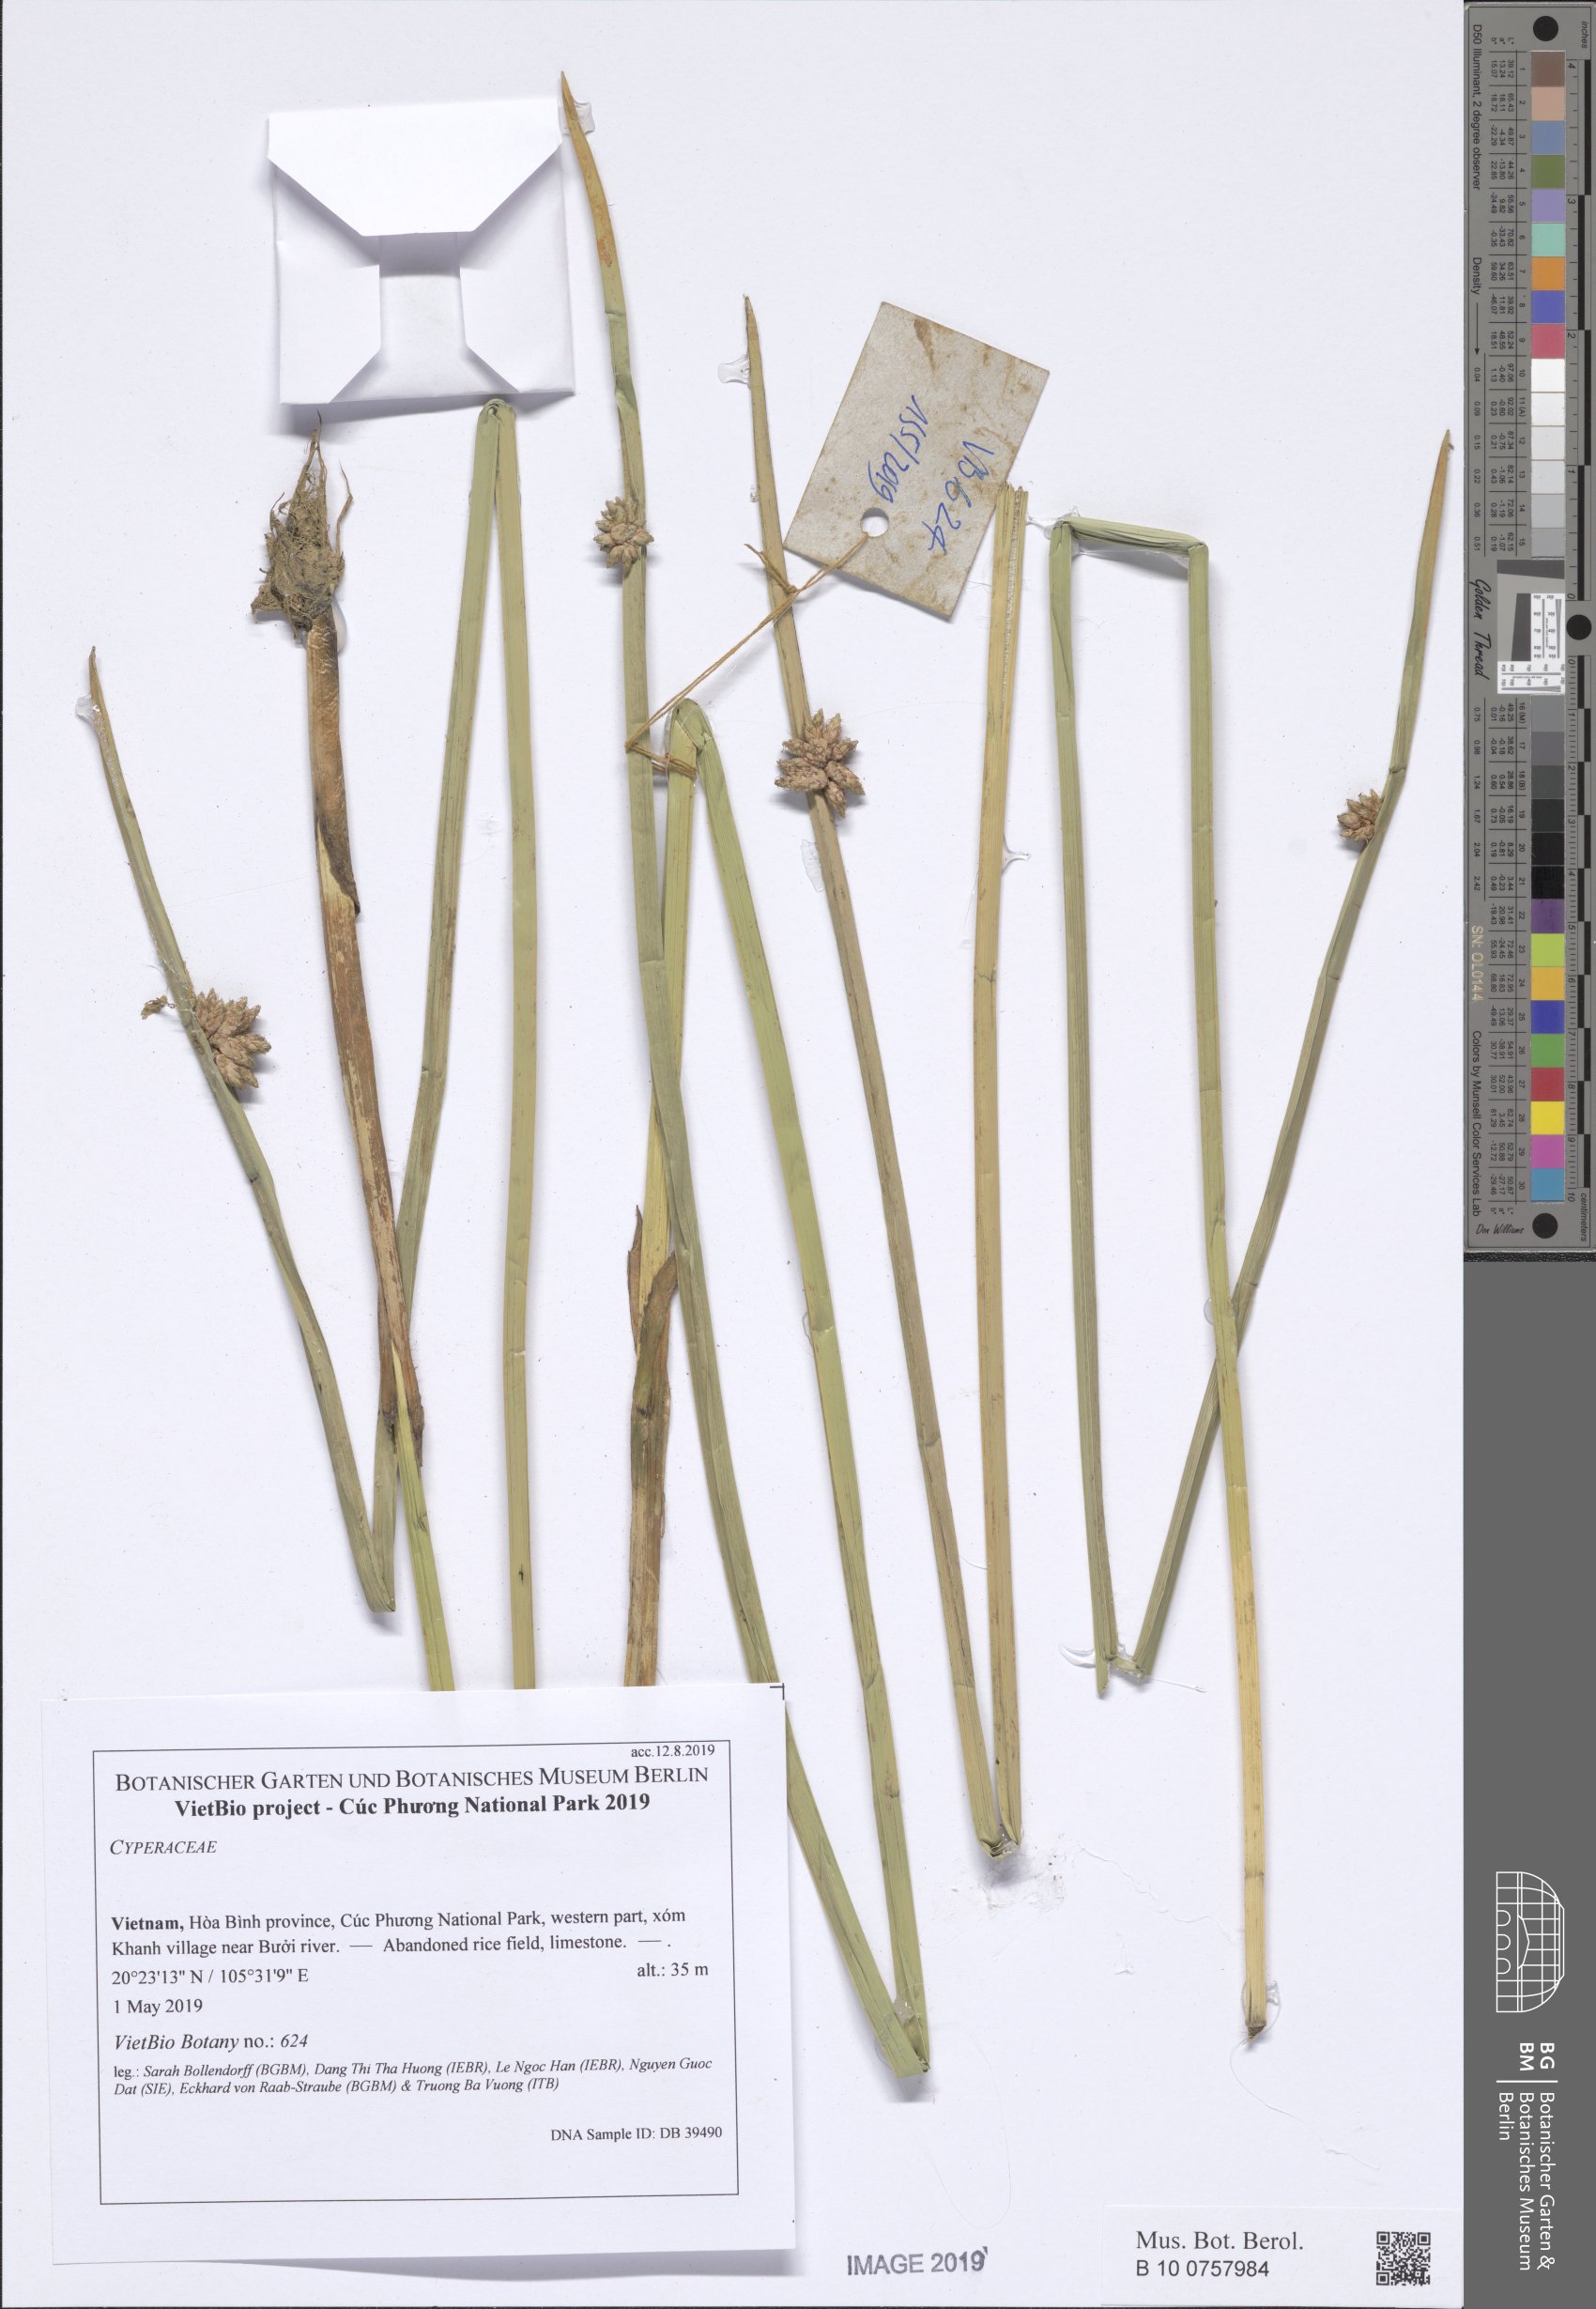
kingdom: Plantae
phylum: Tracheophyta
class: Liliopsida
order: Poales
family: Cyperaceae
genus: Schoenoplectiella
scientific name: Schoenoplectiella juncoides
